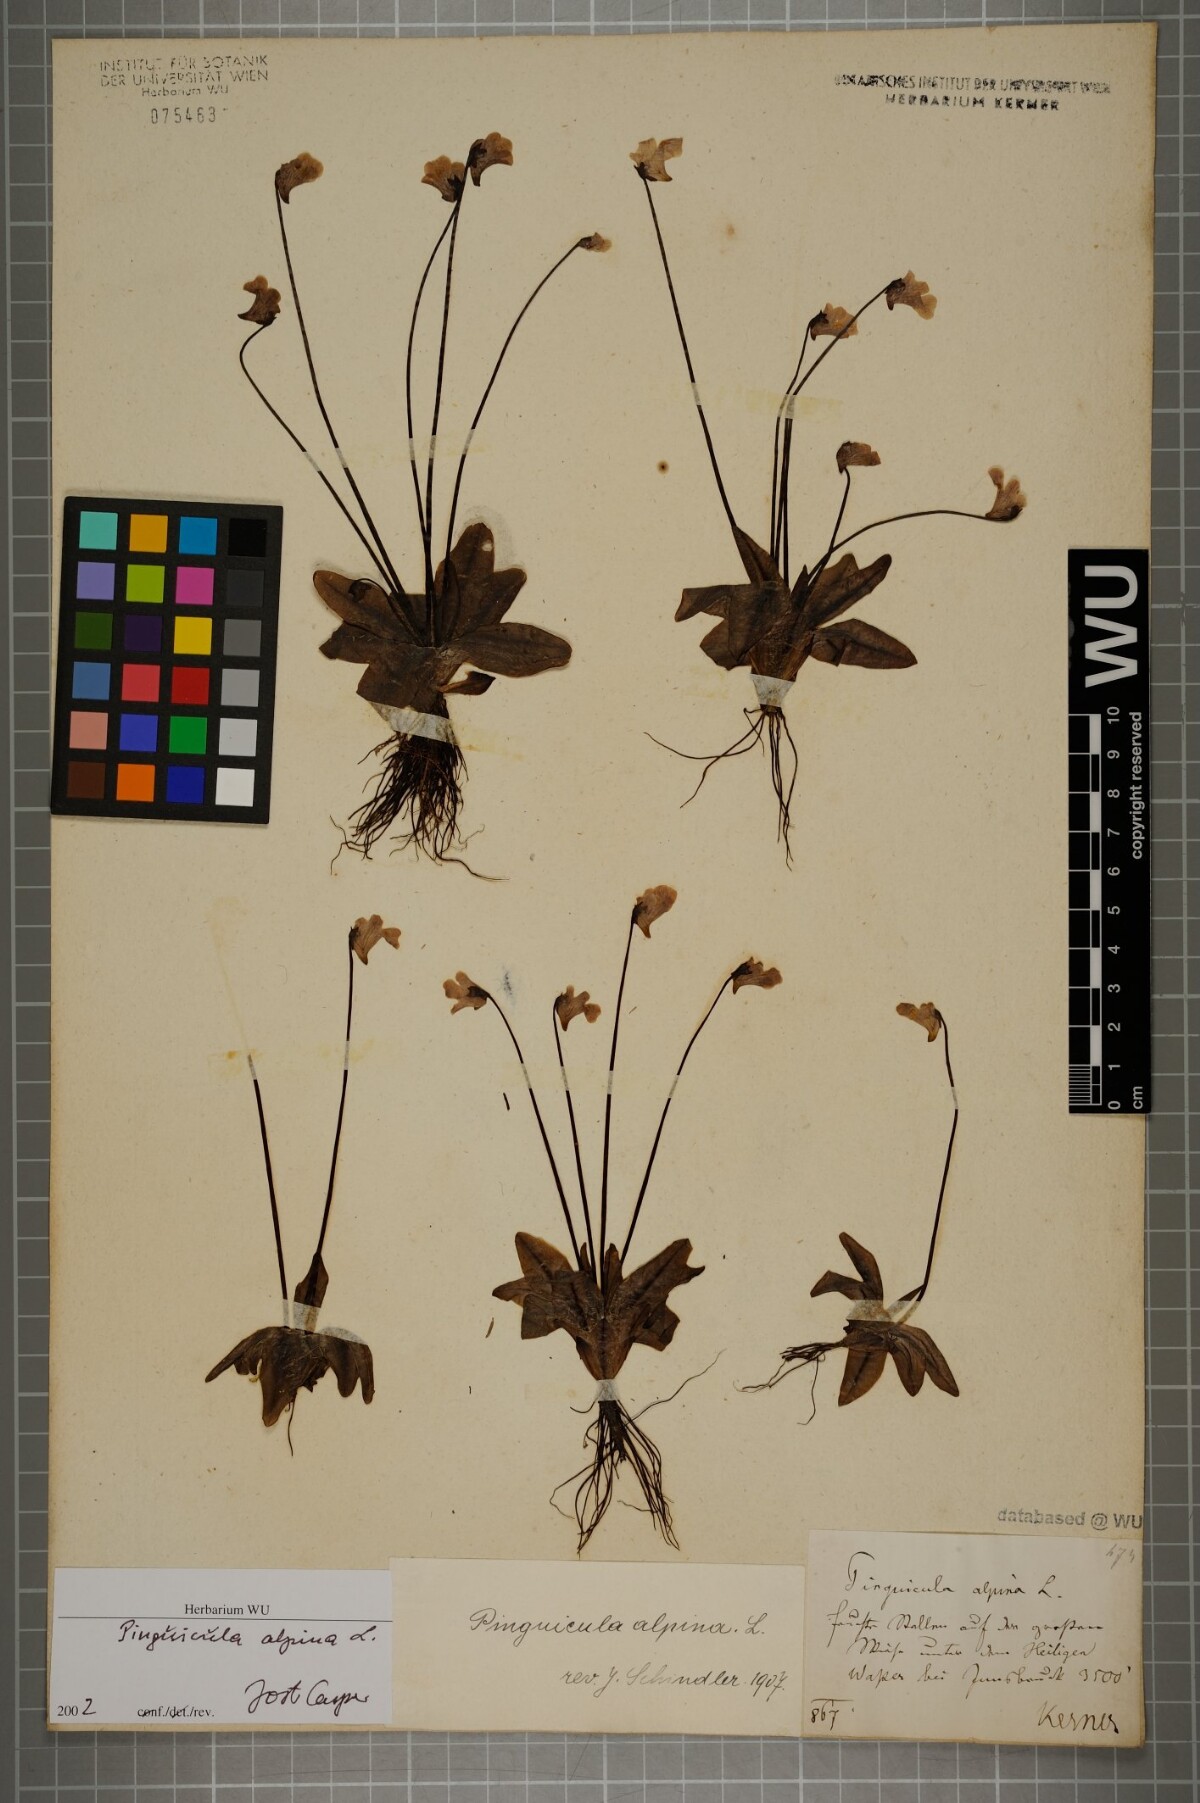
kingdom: Plantae
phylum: Tracheophyta
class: Magnoliopsida
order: Lamiales
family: Lentibulariaceae
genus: Pinguicula
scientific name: Pinguicula alpina
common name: Alpine butterwort
